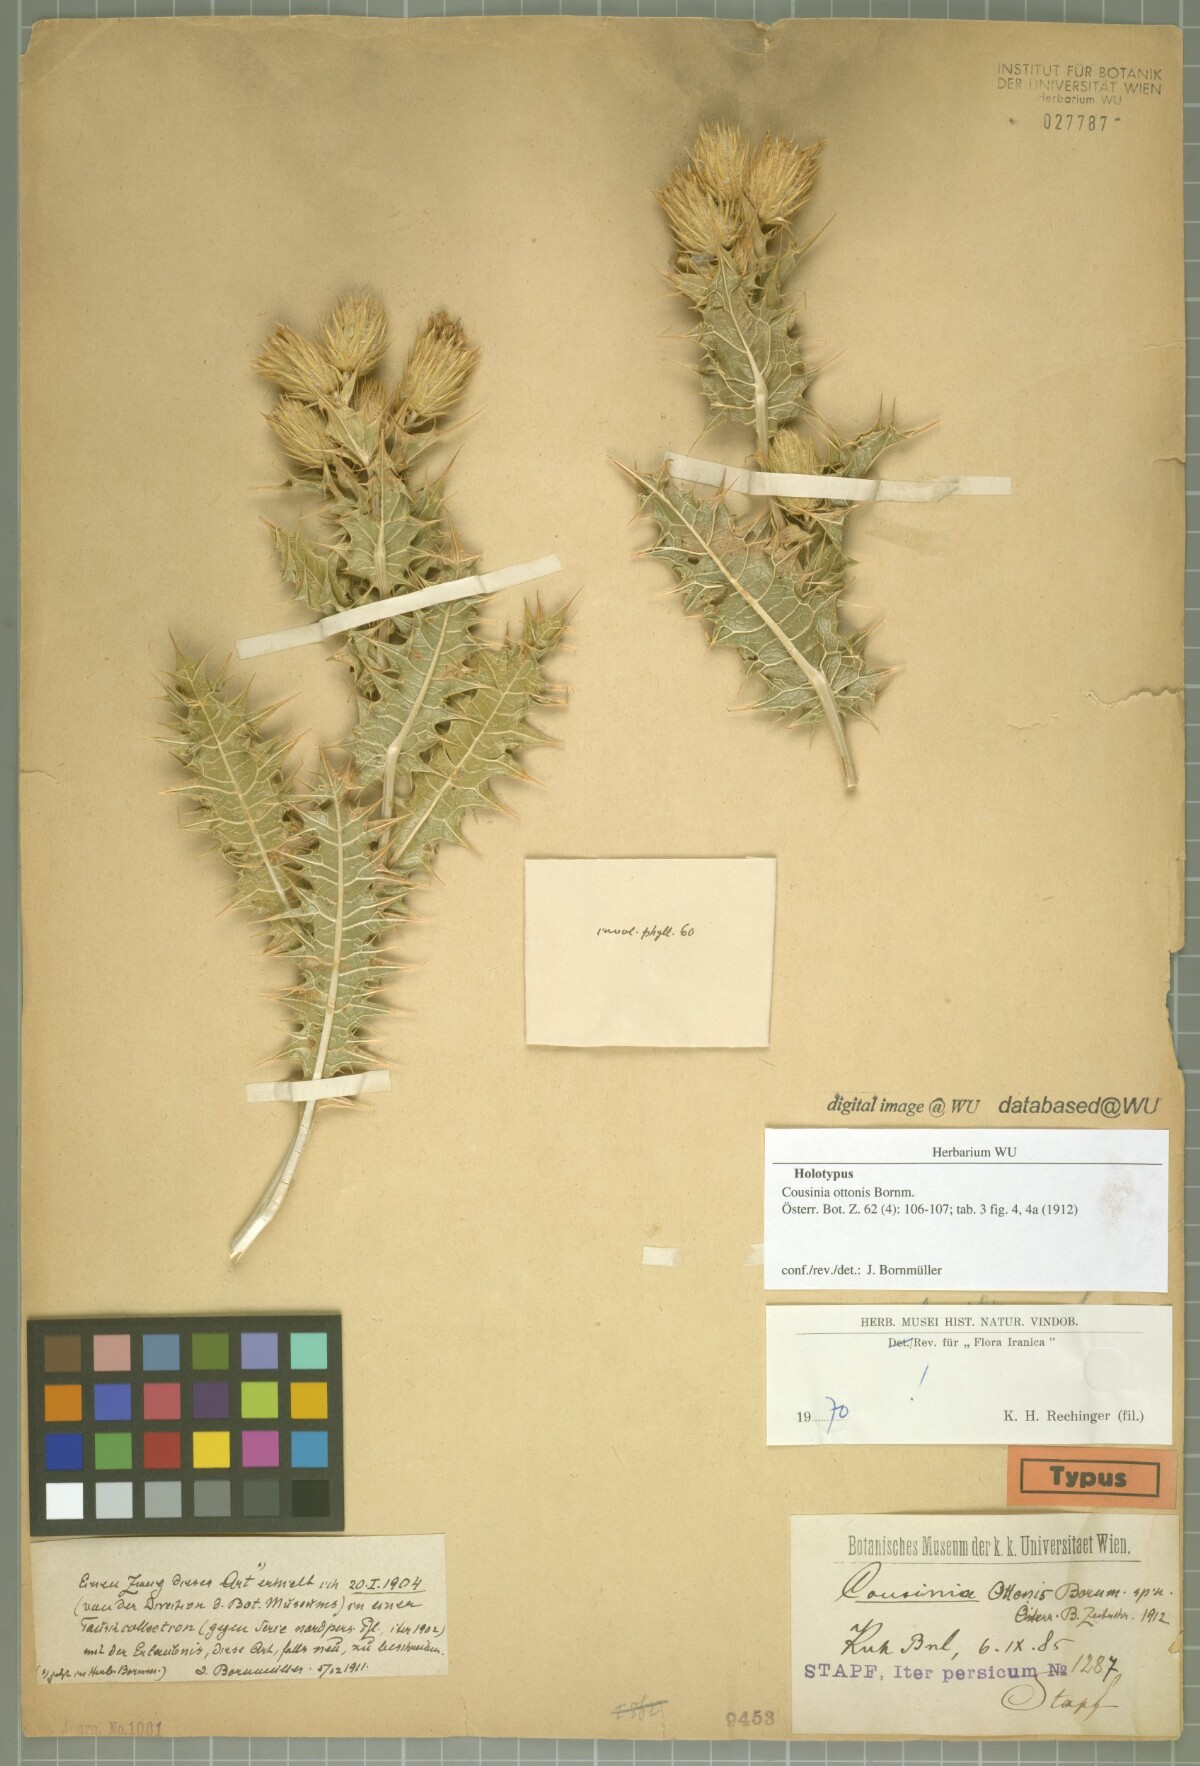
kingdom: Plantae
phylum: Tracheophyta
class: Magnoliopsida
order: Asterales
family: Asteraceae
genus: Cousinia
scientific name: Cousinia ottonis
